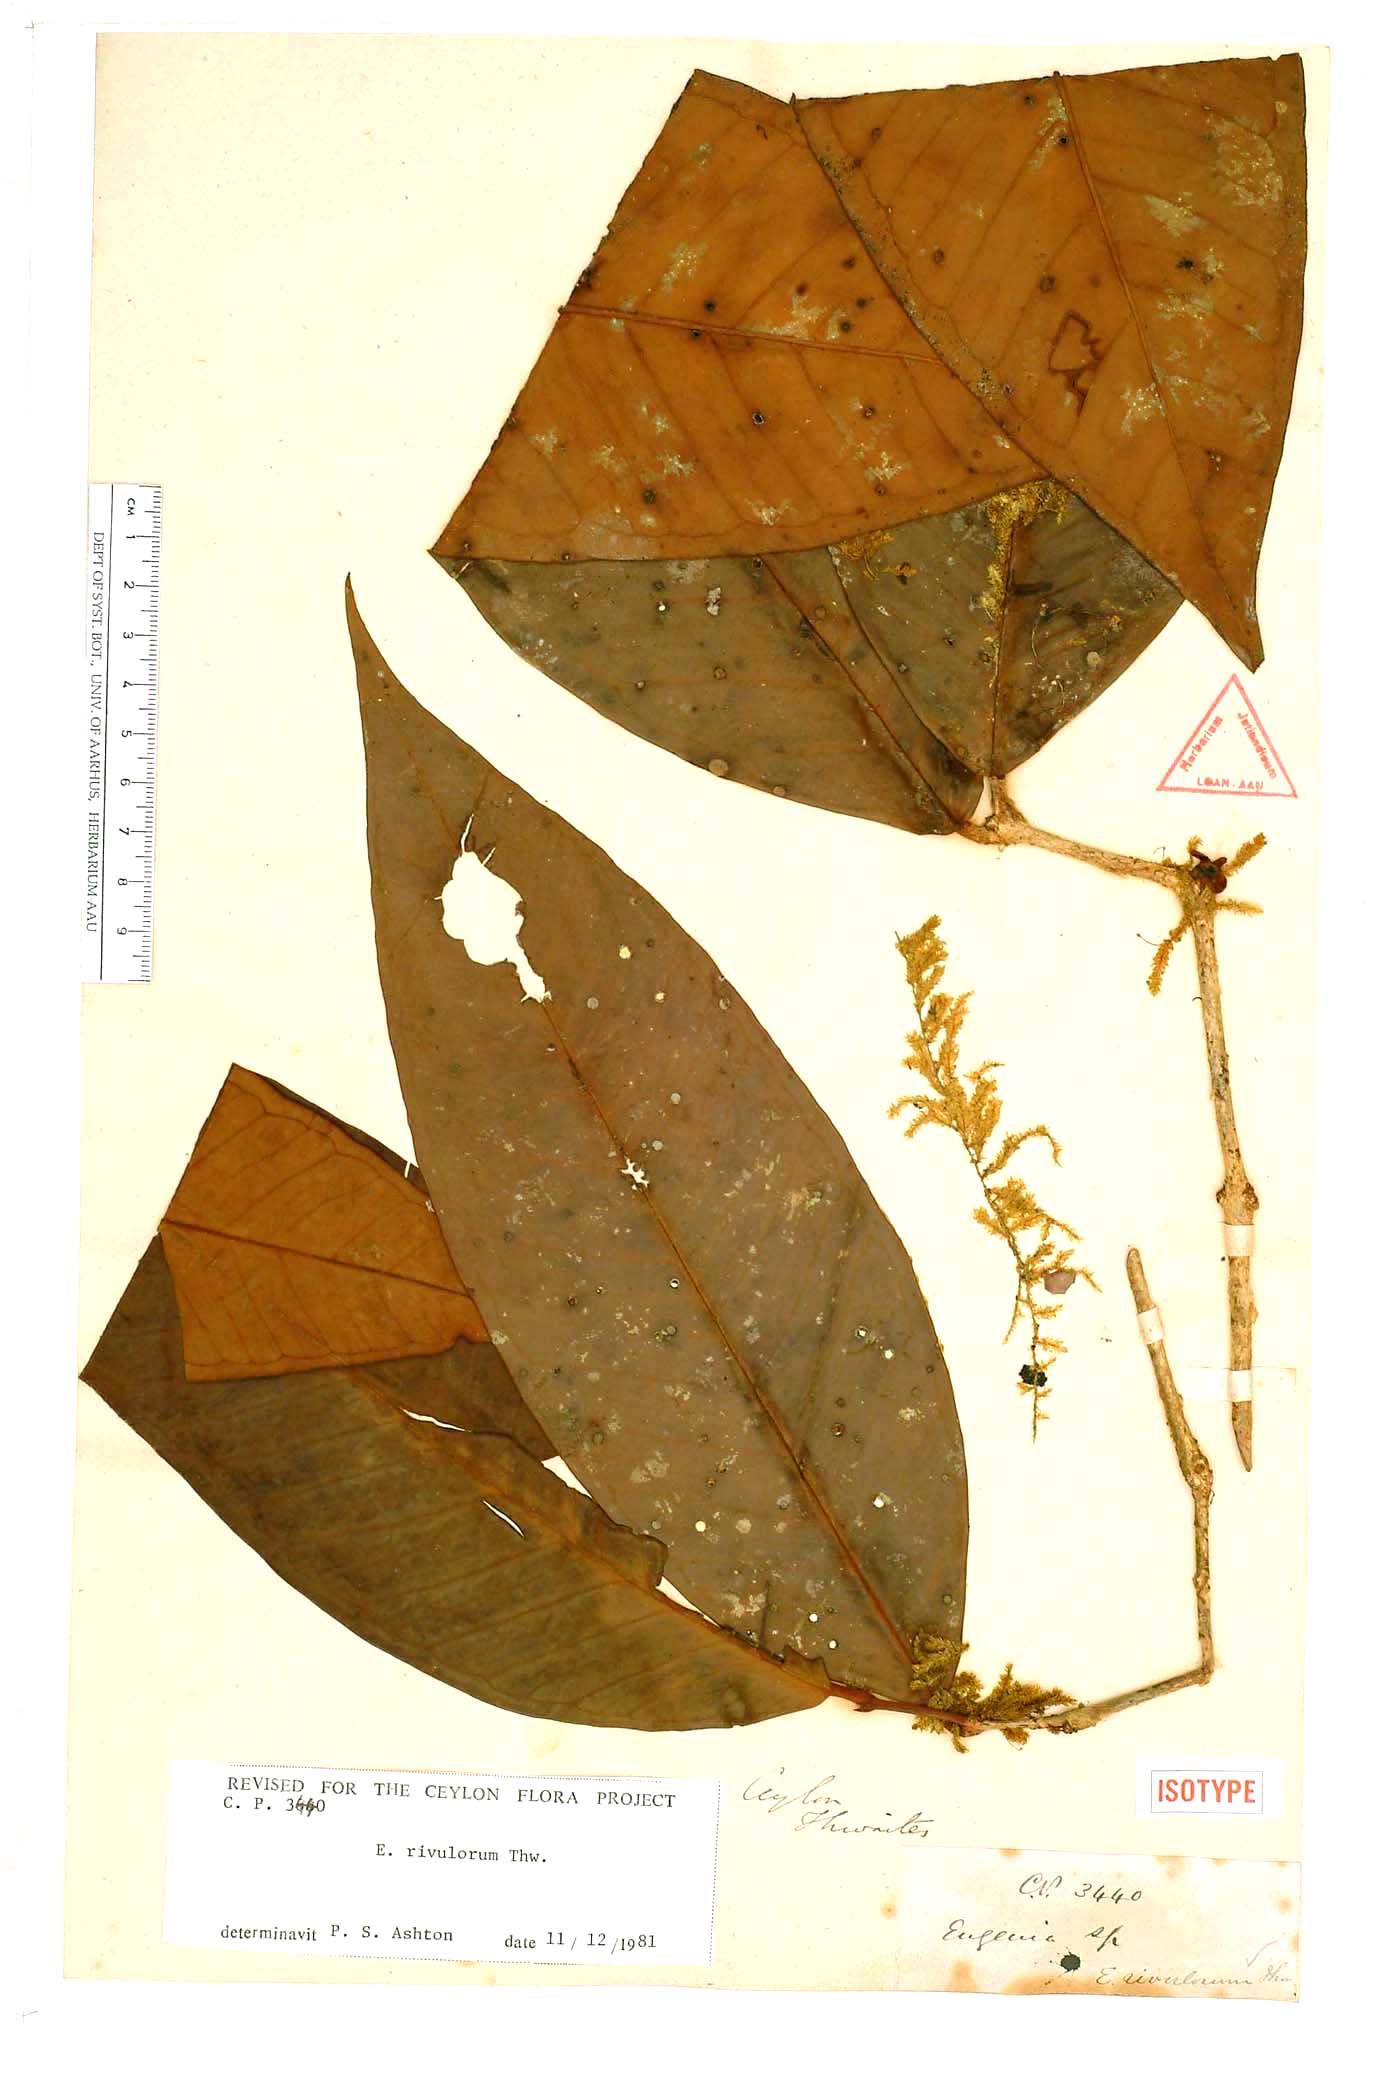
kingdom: Plantae
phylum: Tracheophyta
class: Magnoliopsida
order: Myrtales
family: Myrtaceae
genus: Eugenia
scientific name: Eugenia rivulorum
